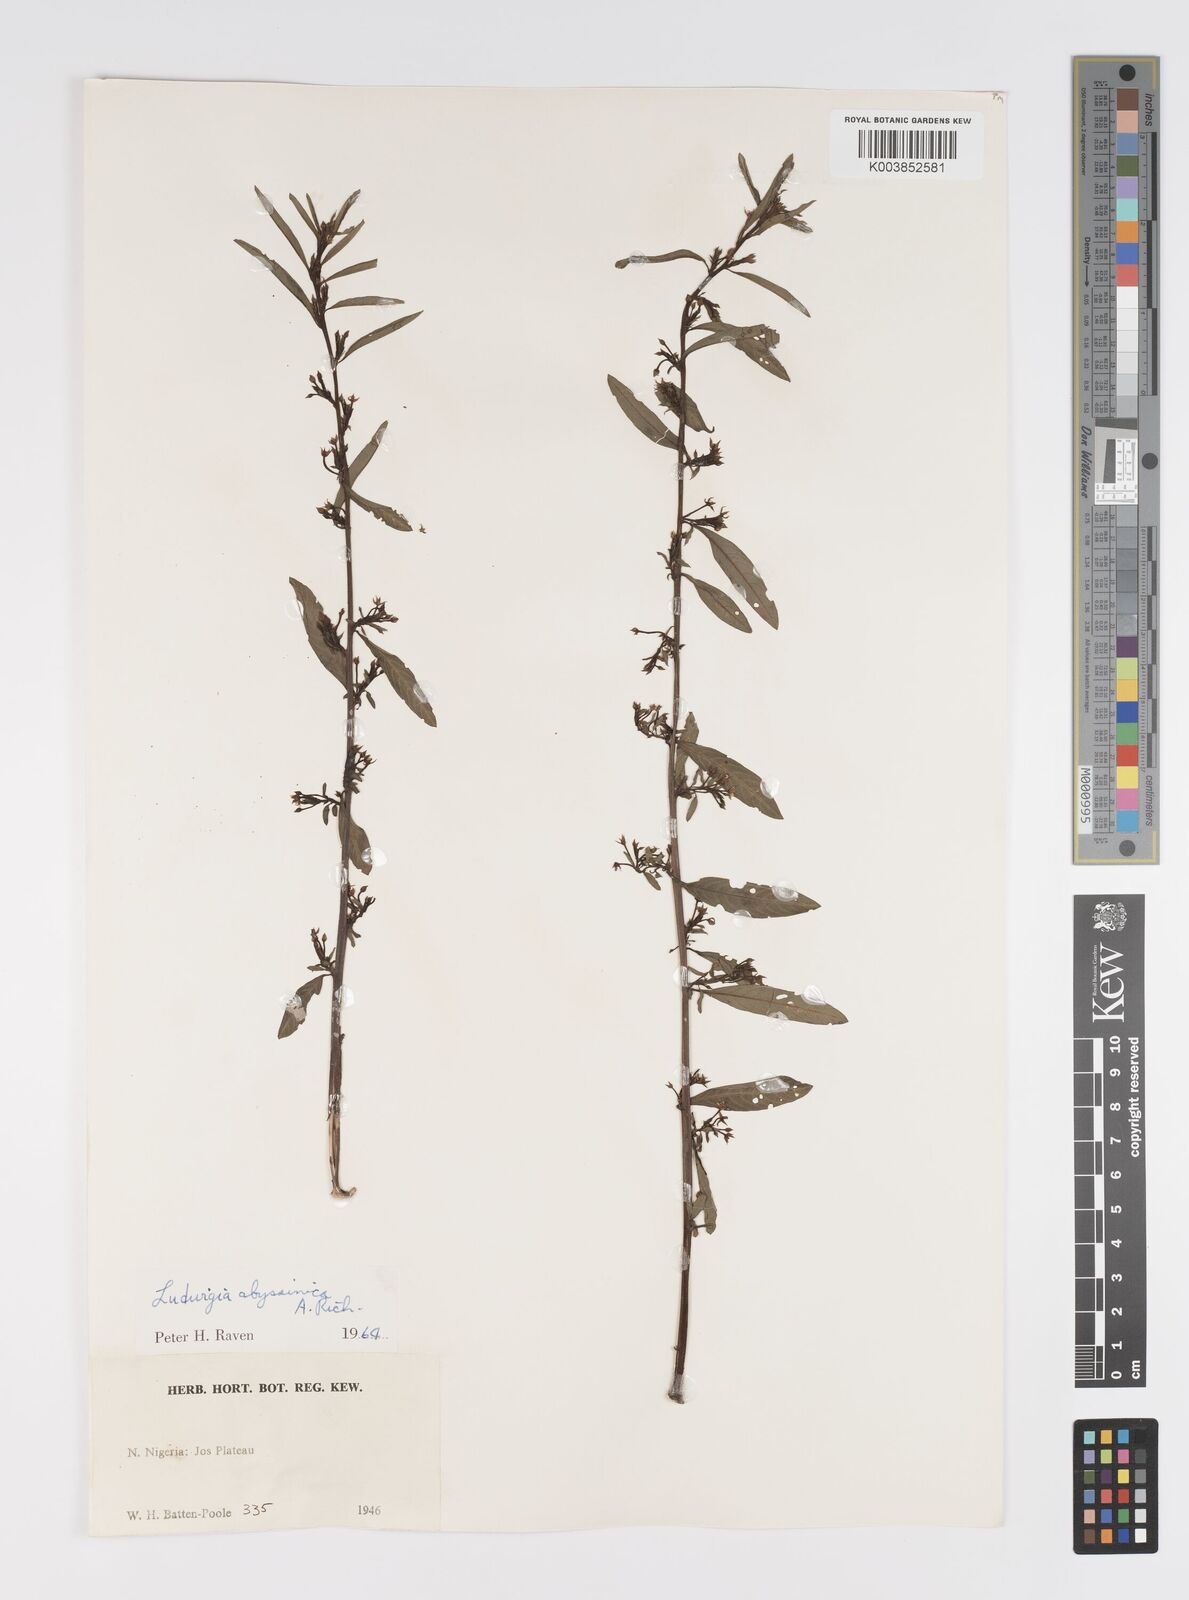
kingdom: Plantae
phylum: Tracheophyta
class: Magnoliopsida
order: Myrtales
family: Onagraceae
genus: Ludwigia
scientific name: Ludwigia abyssinica
